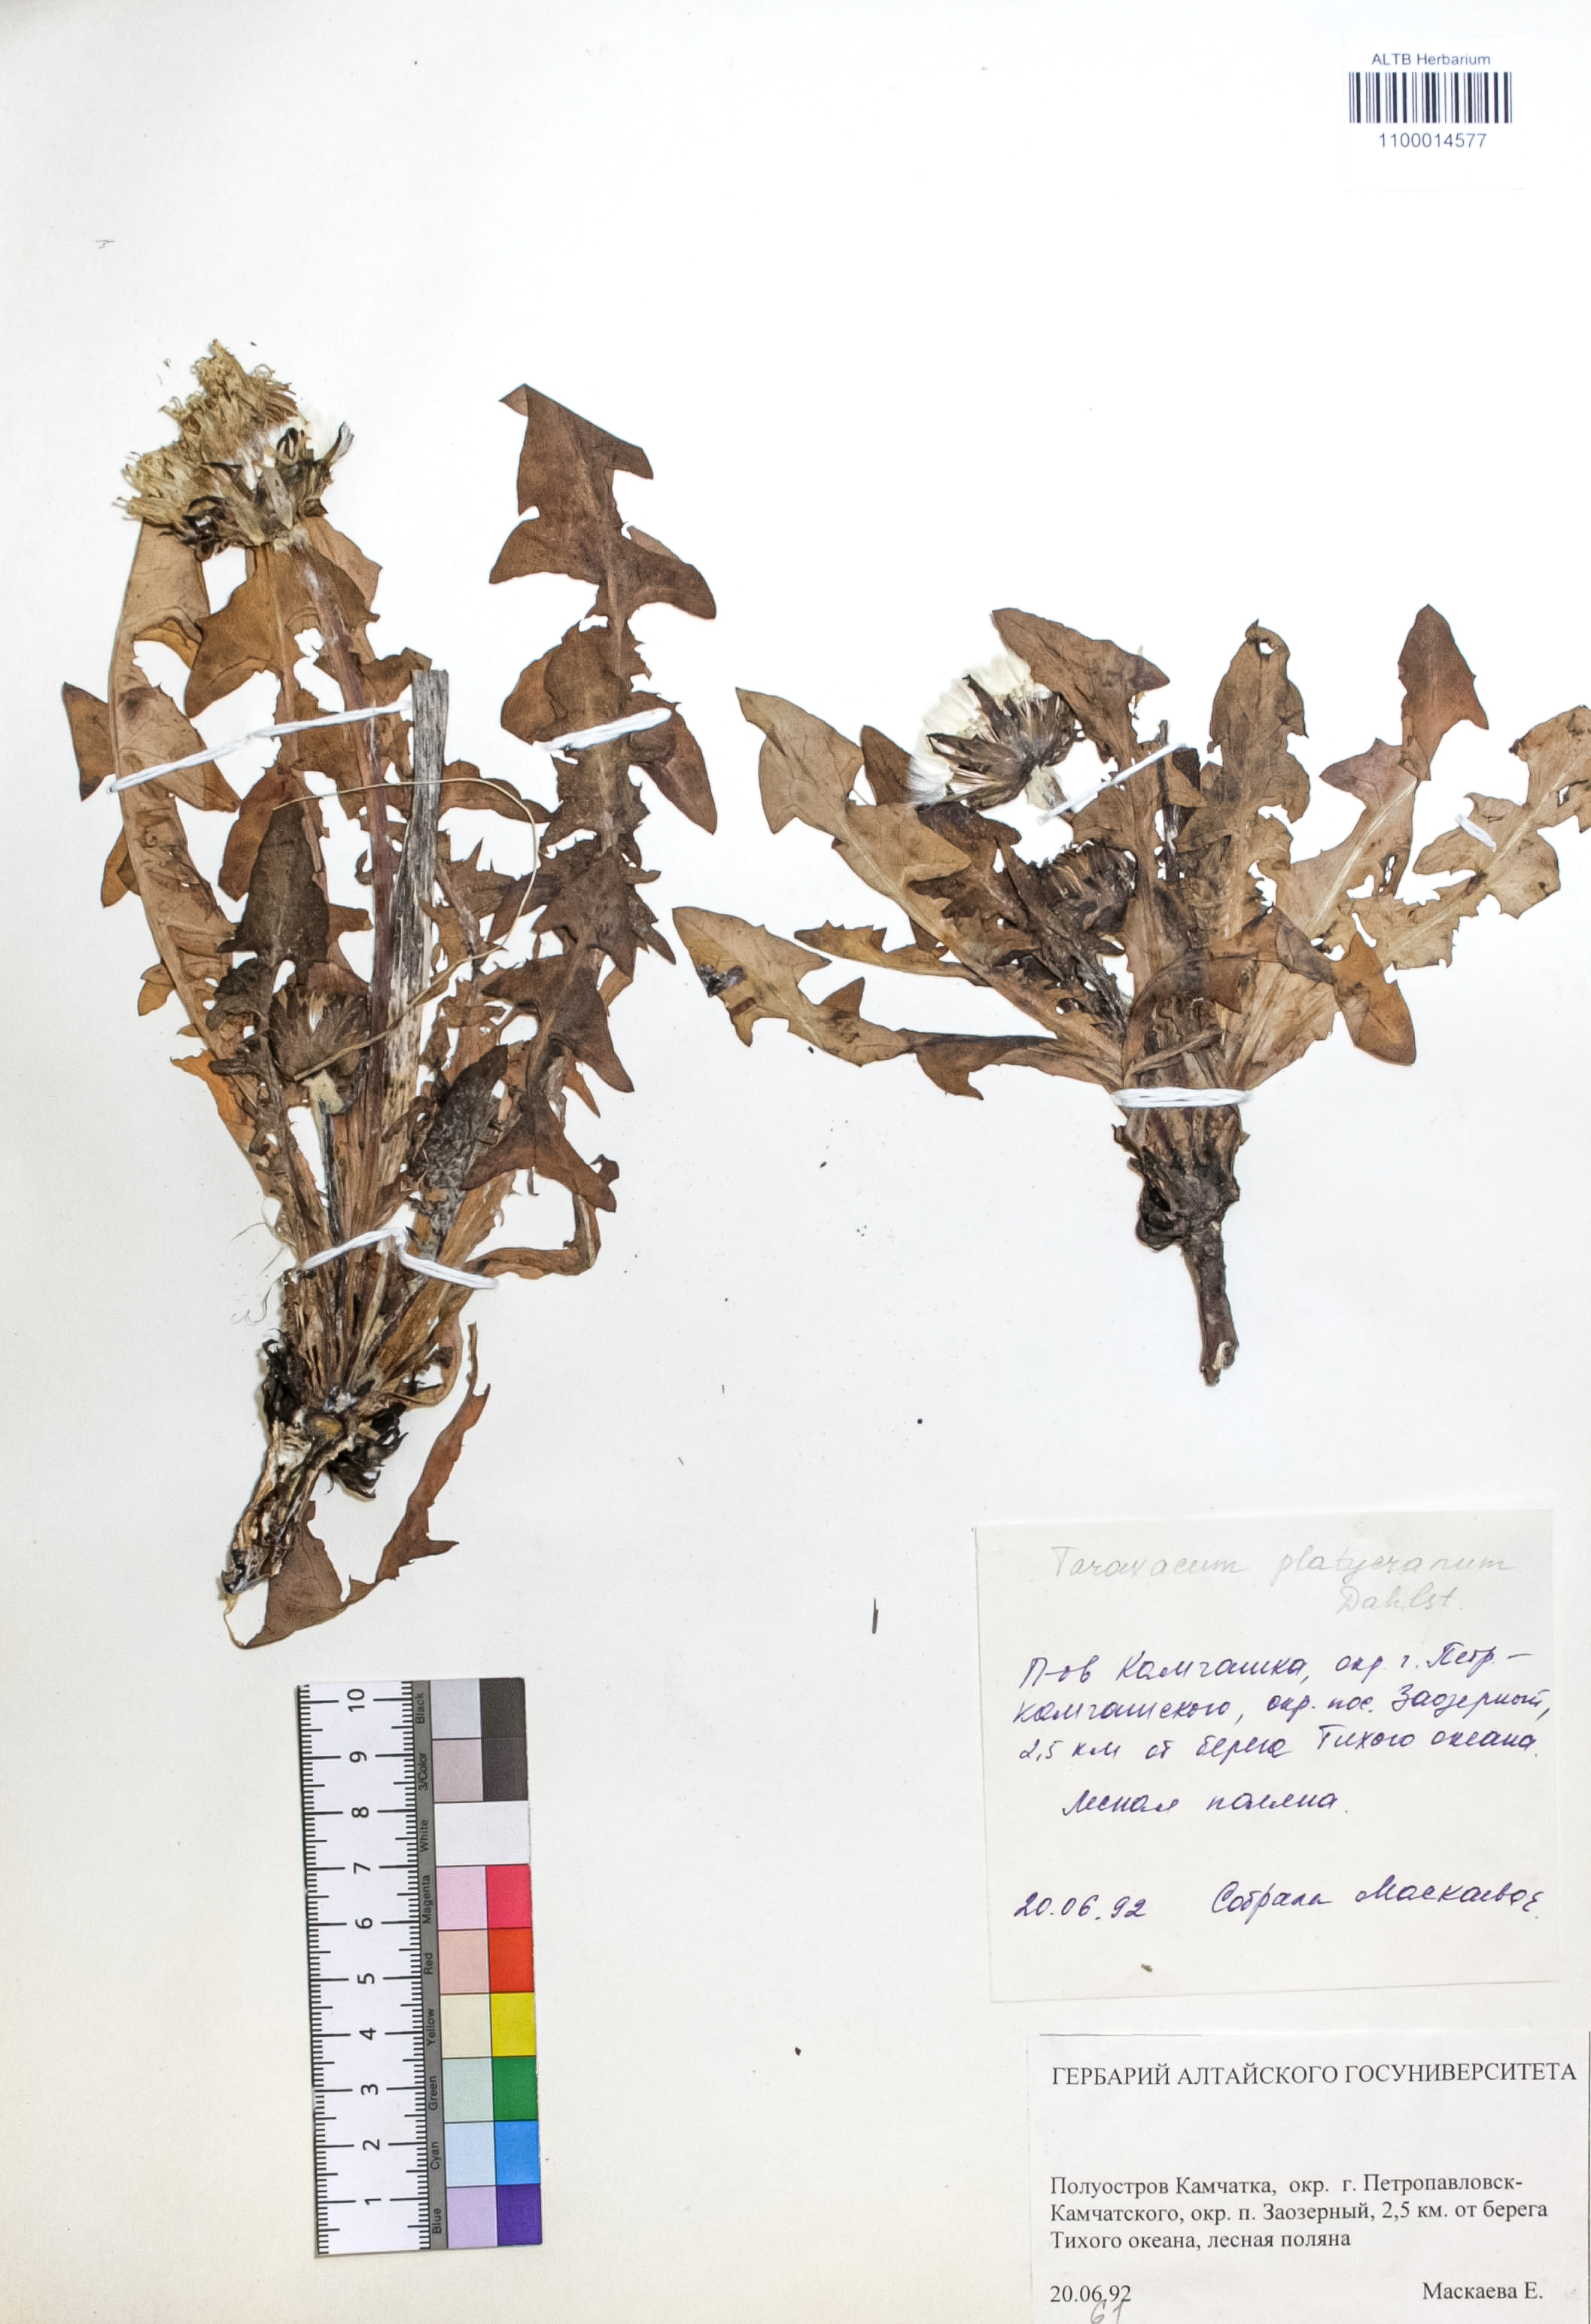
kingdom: Plantae
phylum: Tracheophyta
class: Magnoliopsida
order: Asterales
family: Asteraceae
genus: Taraxacum
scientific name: Taraxacum platycranum
